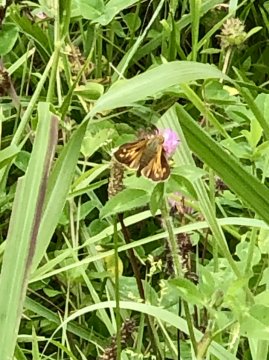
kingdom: Animalia
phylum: Arthropoda
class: Insecta
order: Lepidoptera
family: Hesperiidae
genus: Atalopedes
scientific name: Atalopedes campestris
